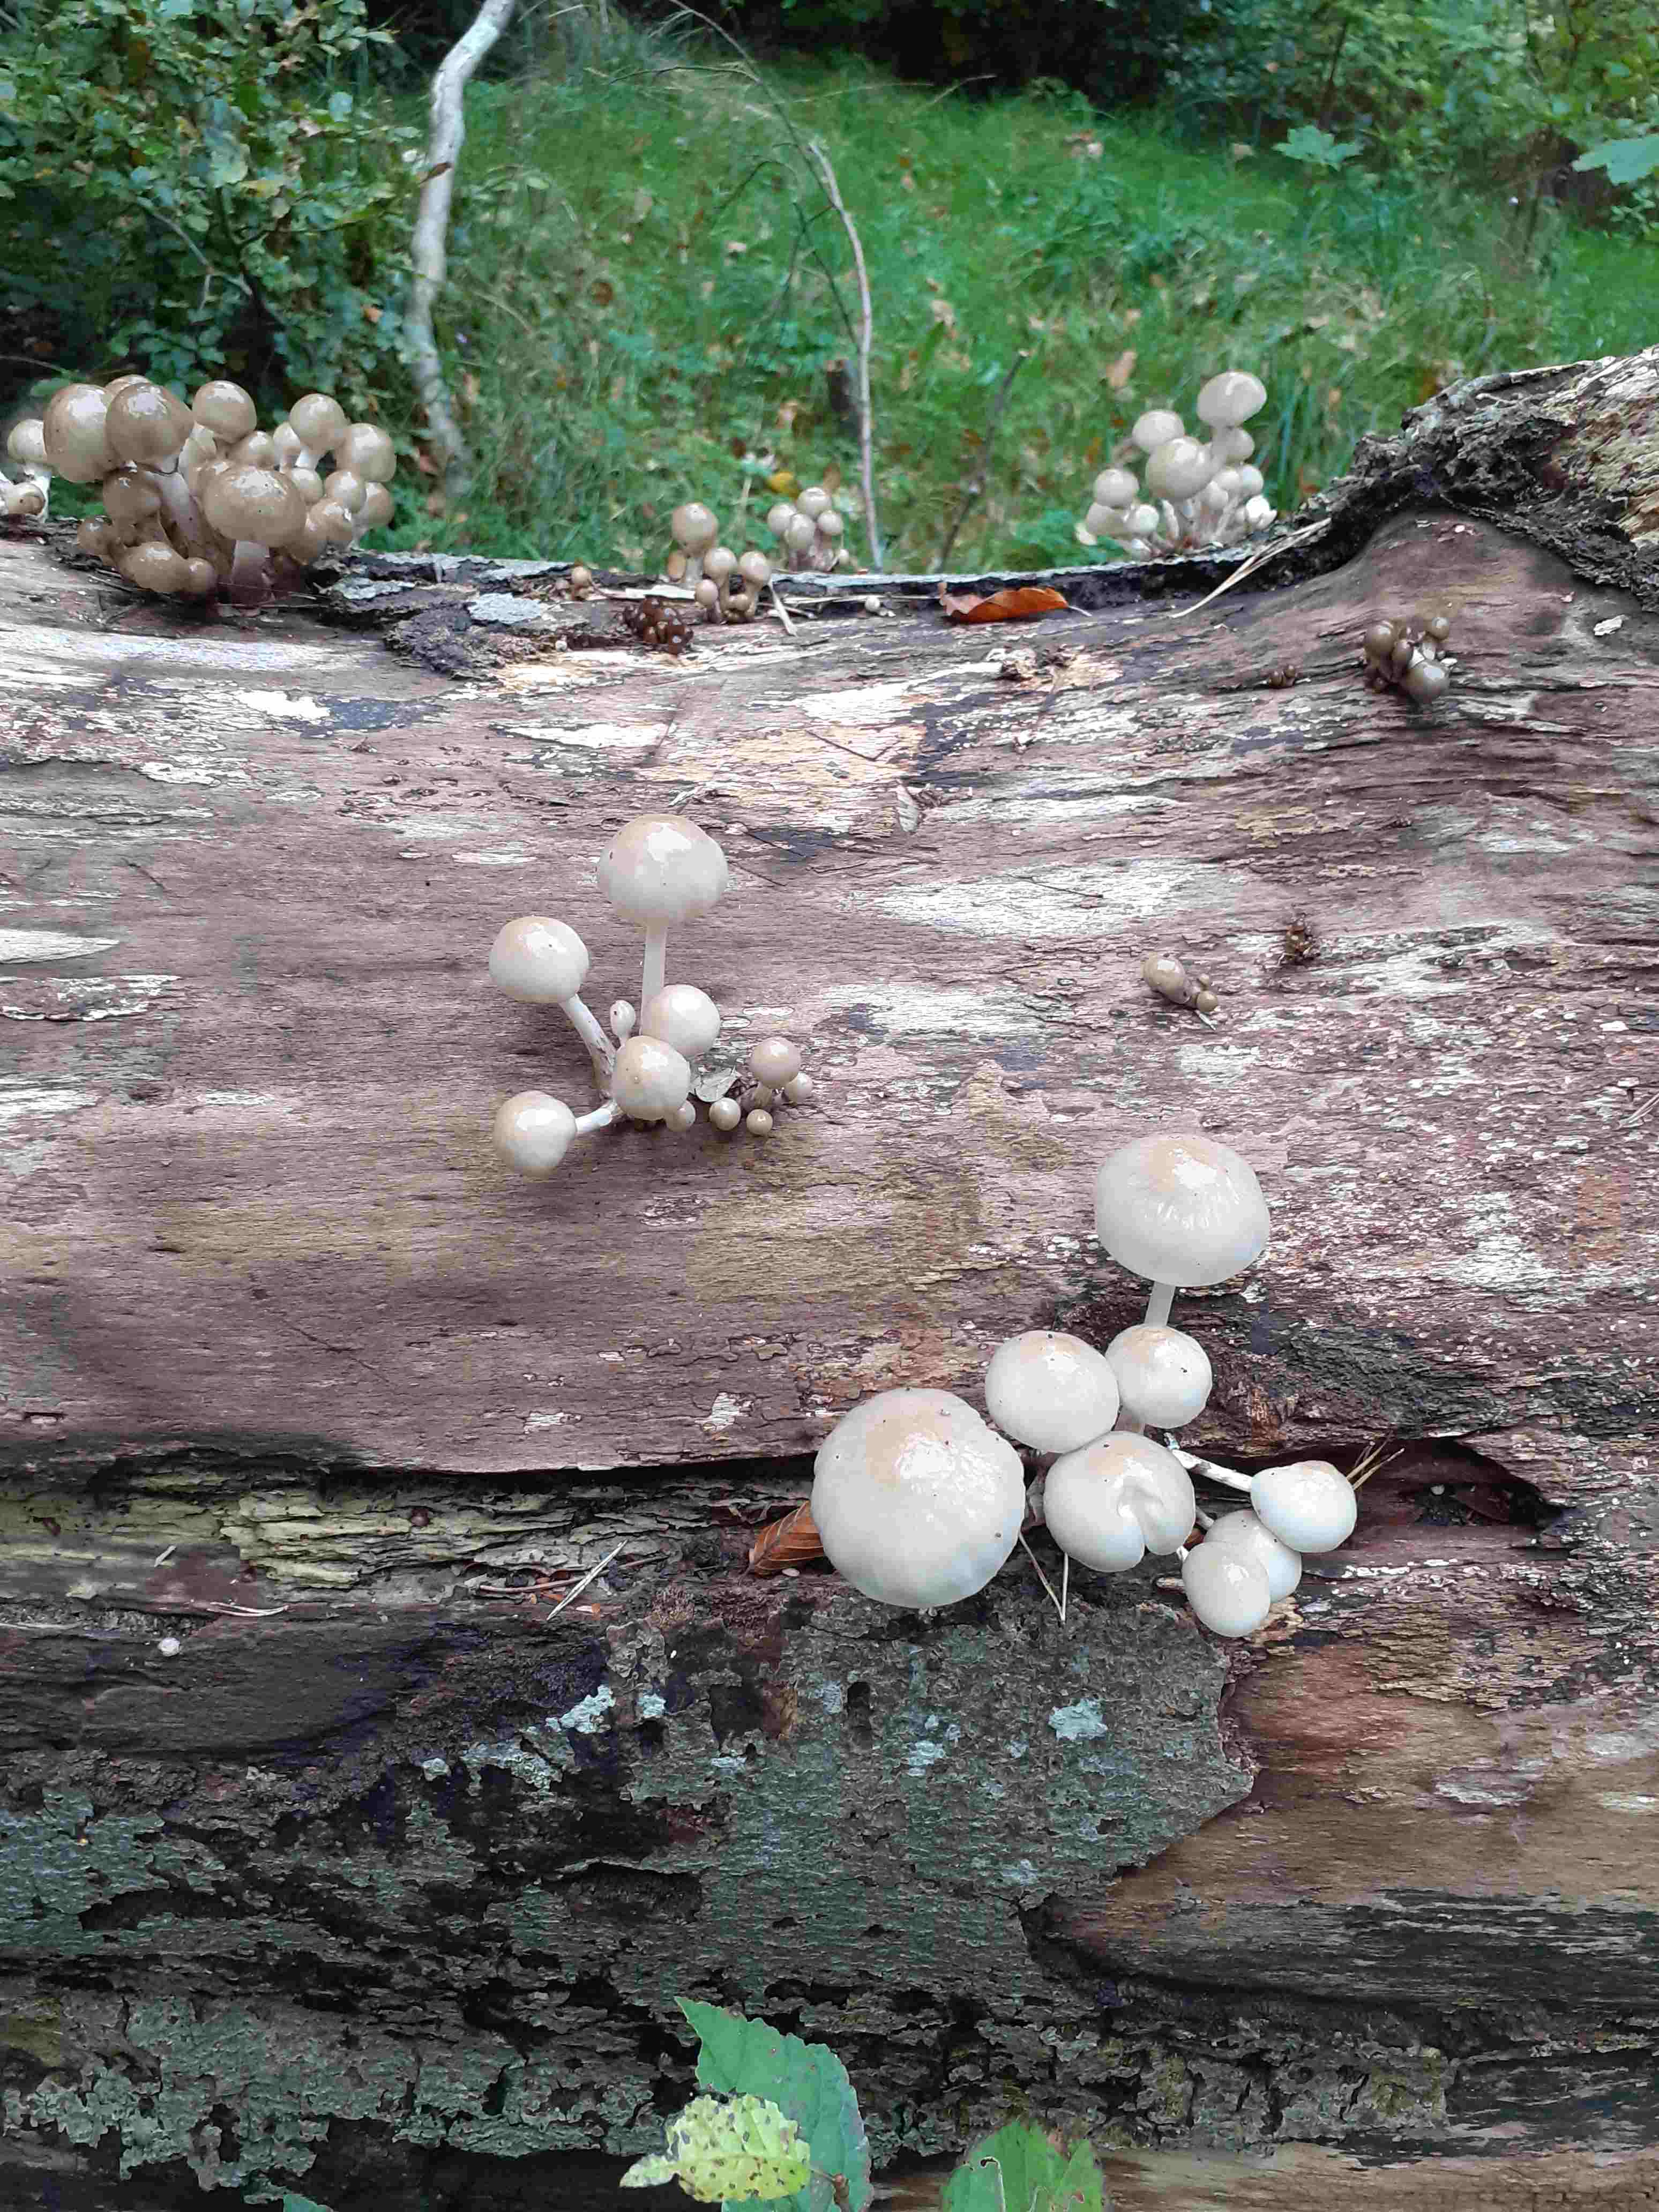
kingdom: Fungi
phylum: Basidiomycota
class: Agaricomycetes
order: Agaricales
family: Physalacriaceae
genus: Mucidula
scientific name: Mucidula mucida
